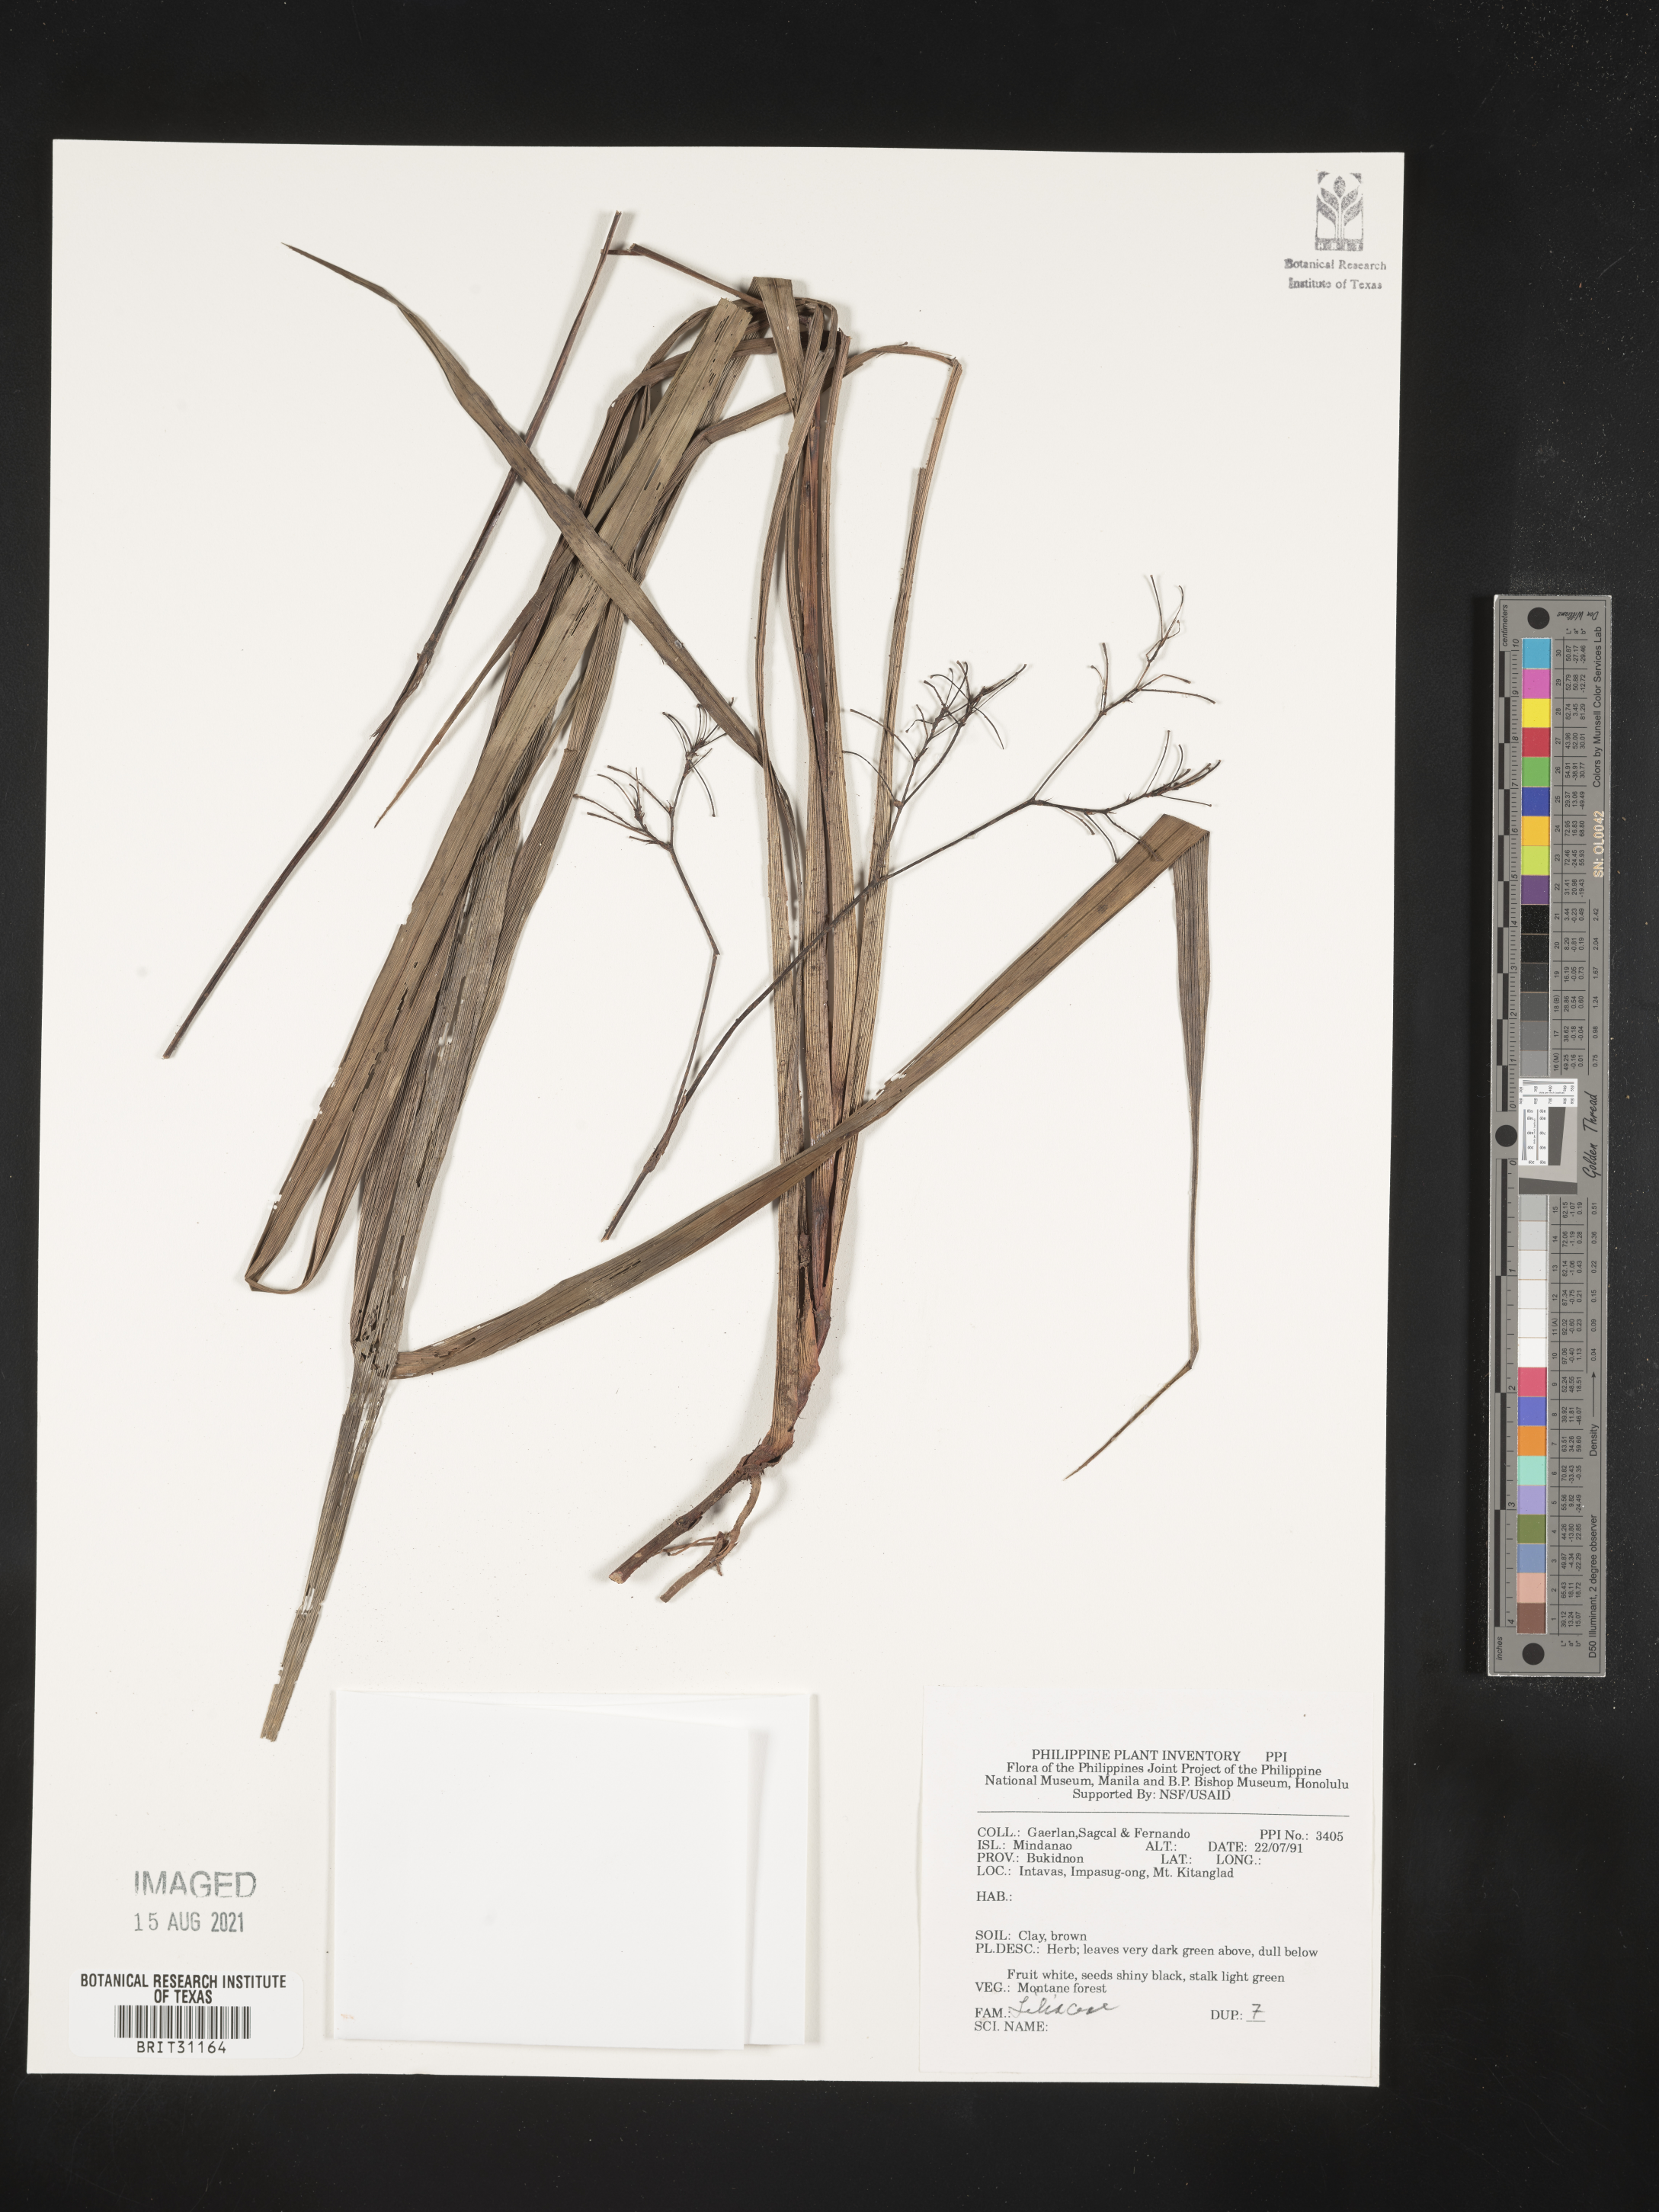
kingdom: Plantae
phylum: Tracheophyta
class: Liliopsida
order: Liliales
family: Liliaceae
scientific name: Liliaceae
